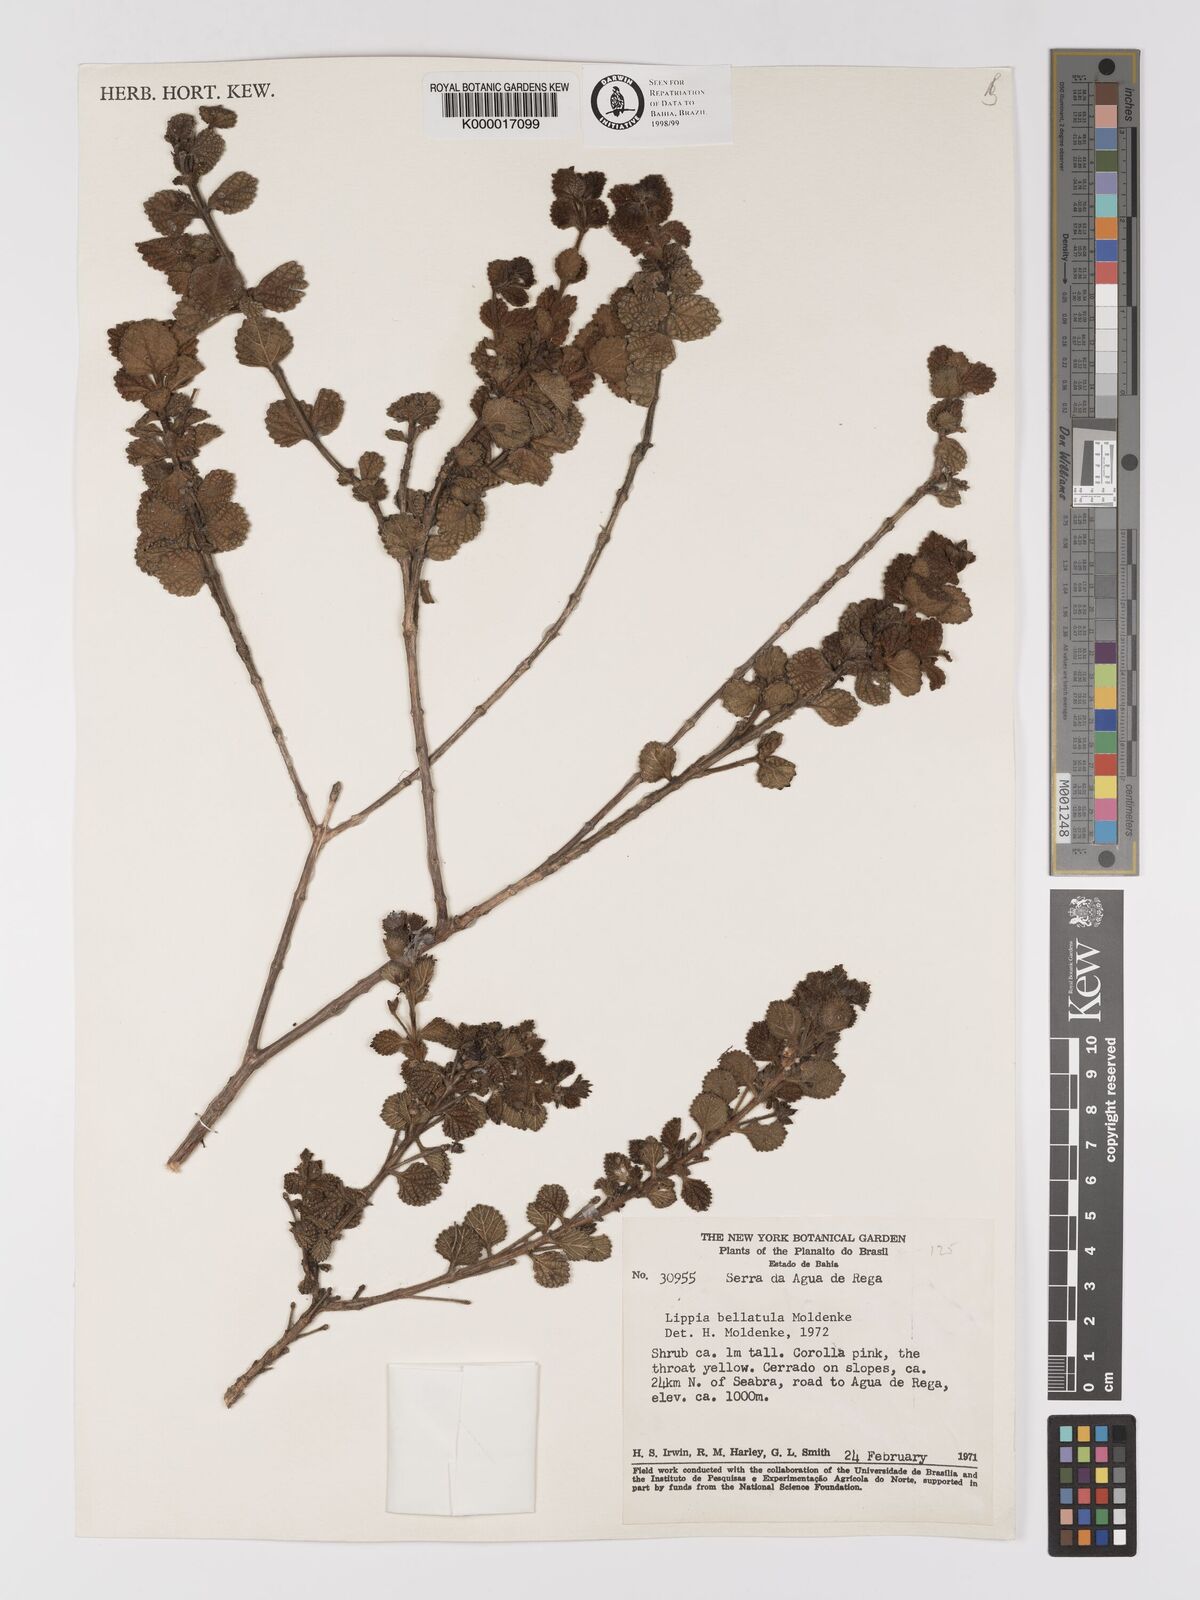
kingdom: Plantae
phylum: Tracheophyta
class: Magnoliopsida
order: Lamiales
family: Verbenaceae
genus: Lippia
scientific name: Lippia bellatula
